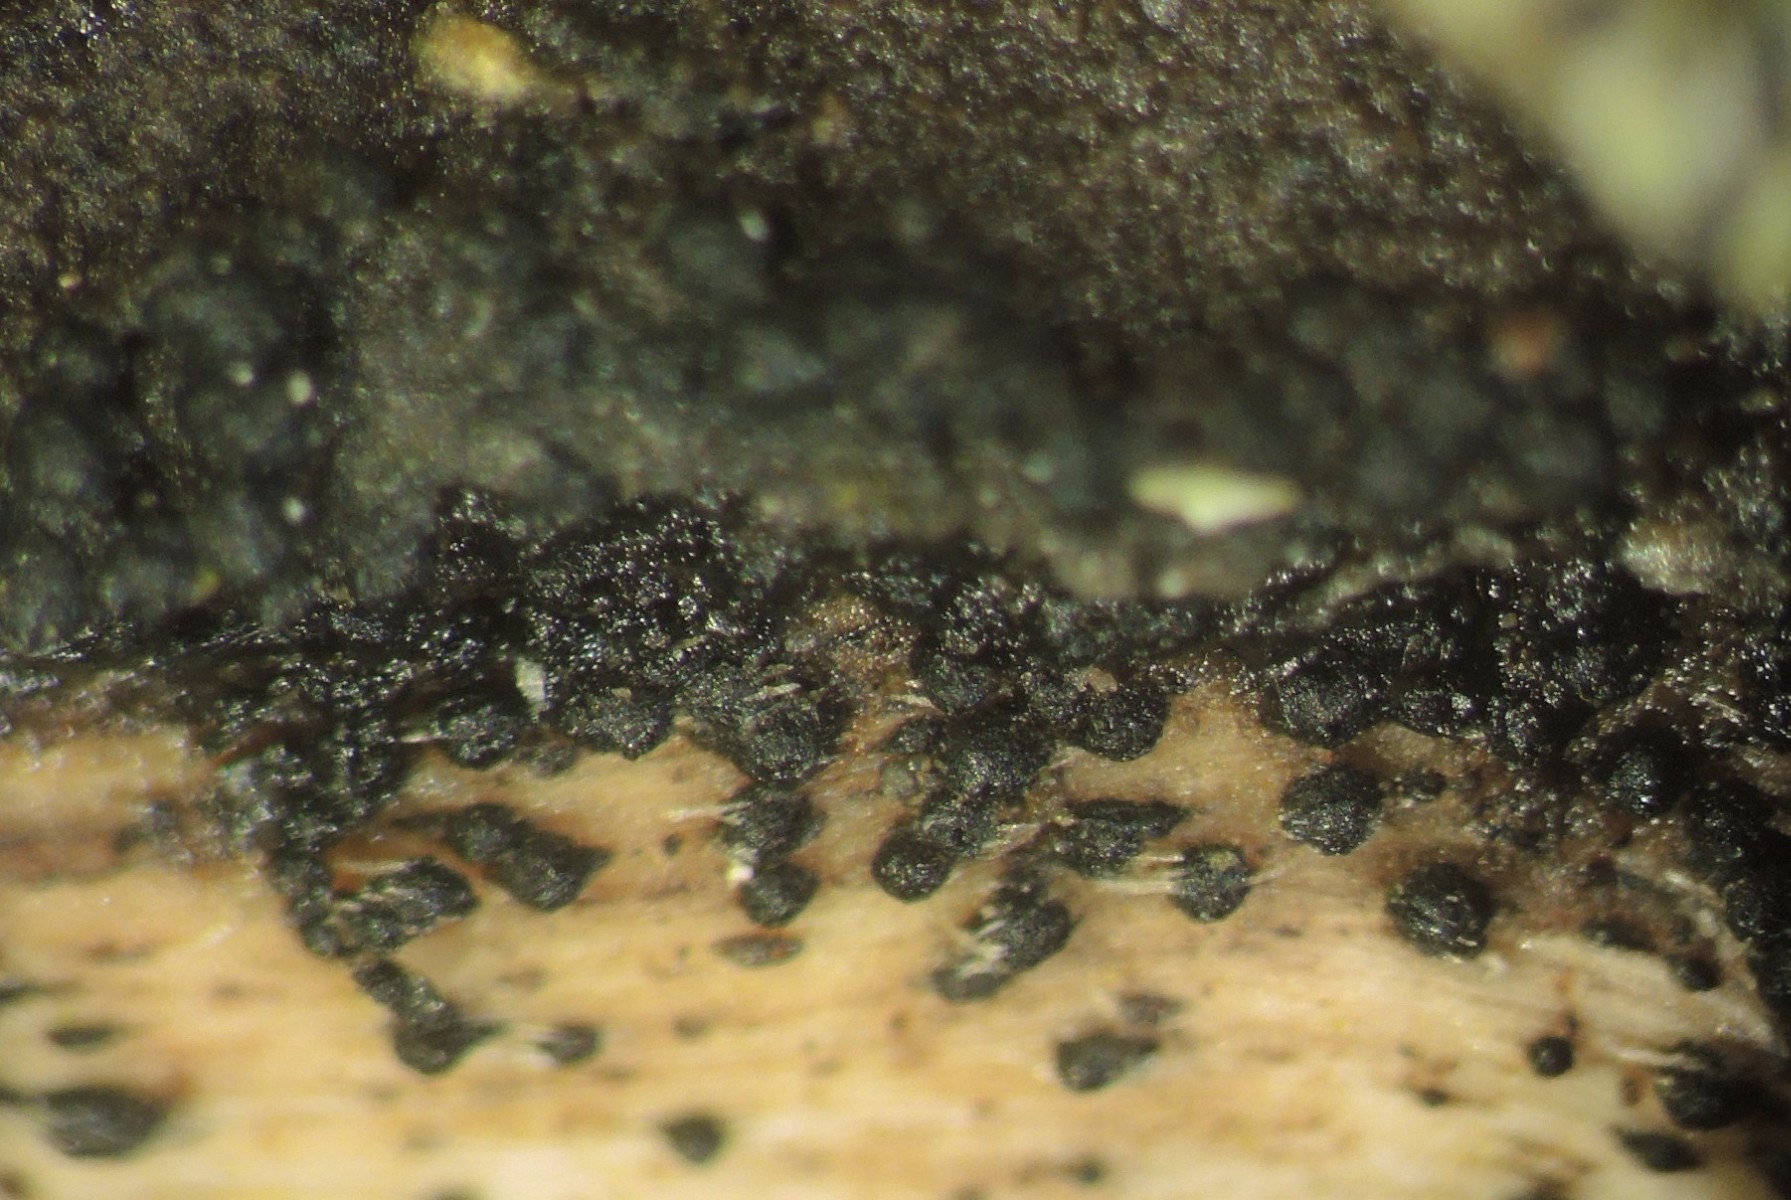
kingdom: Fungi
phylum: Ascomycota
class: Dothideomycetes
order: Pleosporales
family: Melanommataceae
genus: Melanomma
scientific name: Melanomma pulvis-pyrius
